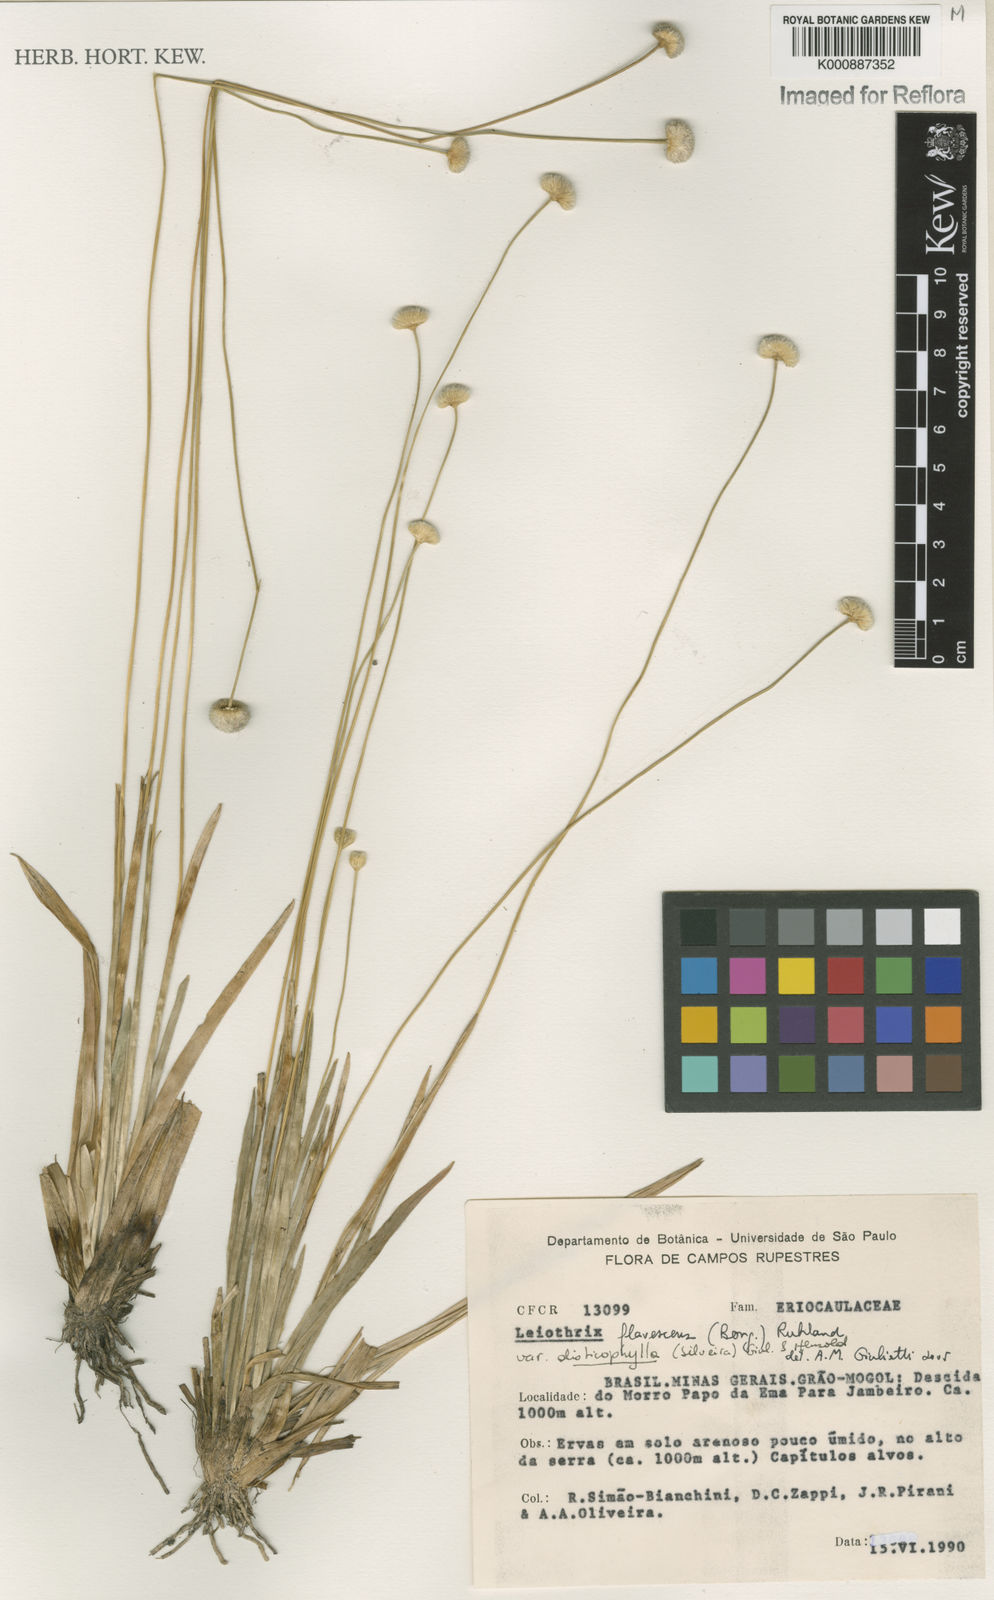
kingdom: Plantae
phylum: Tracheophyta
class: Liliopsida
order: Poales
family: Eriocaulaceae
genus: Leiothrix
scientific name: Leiothrix flavescens
